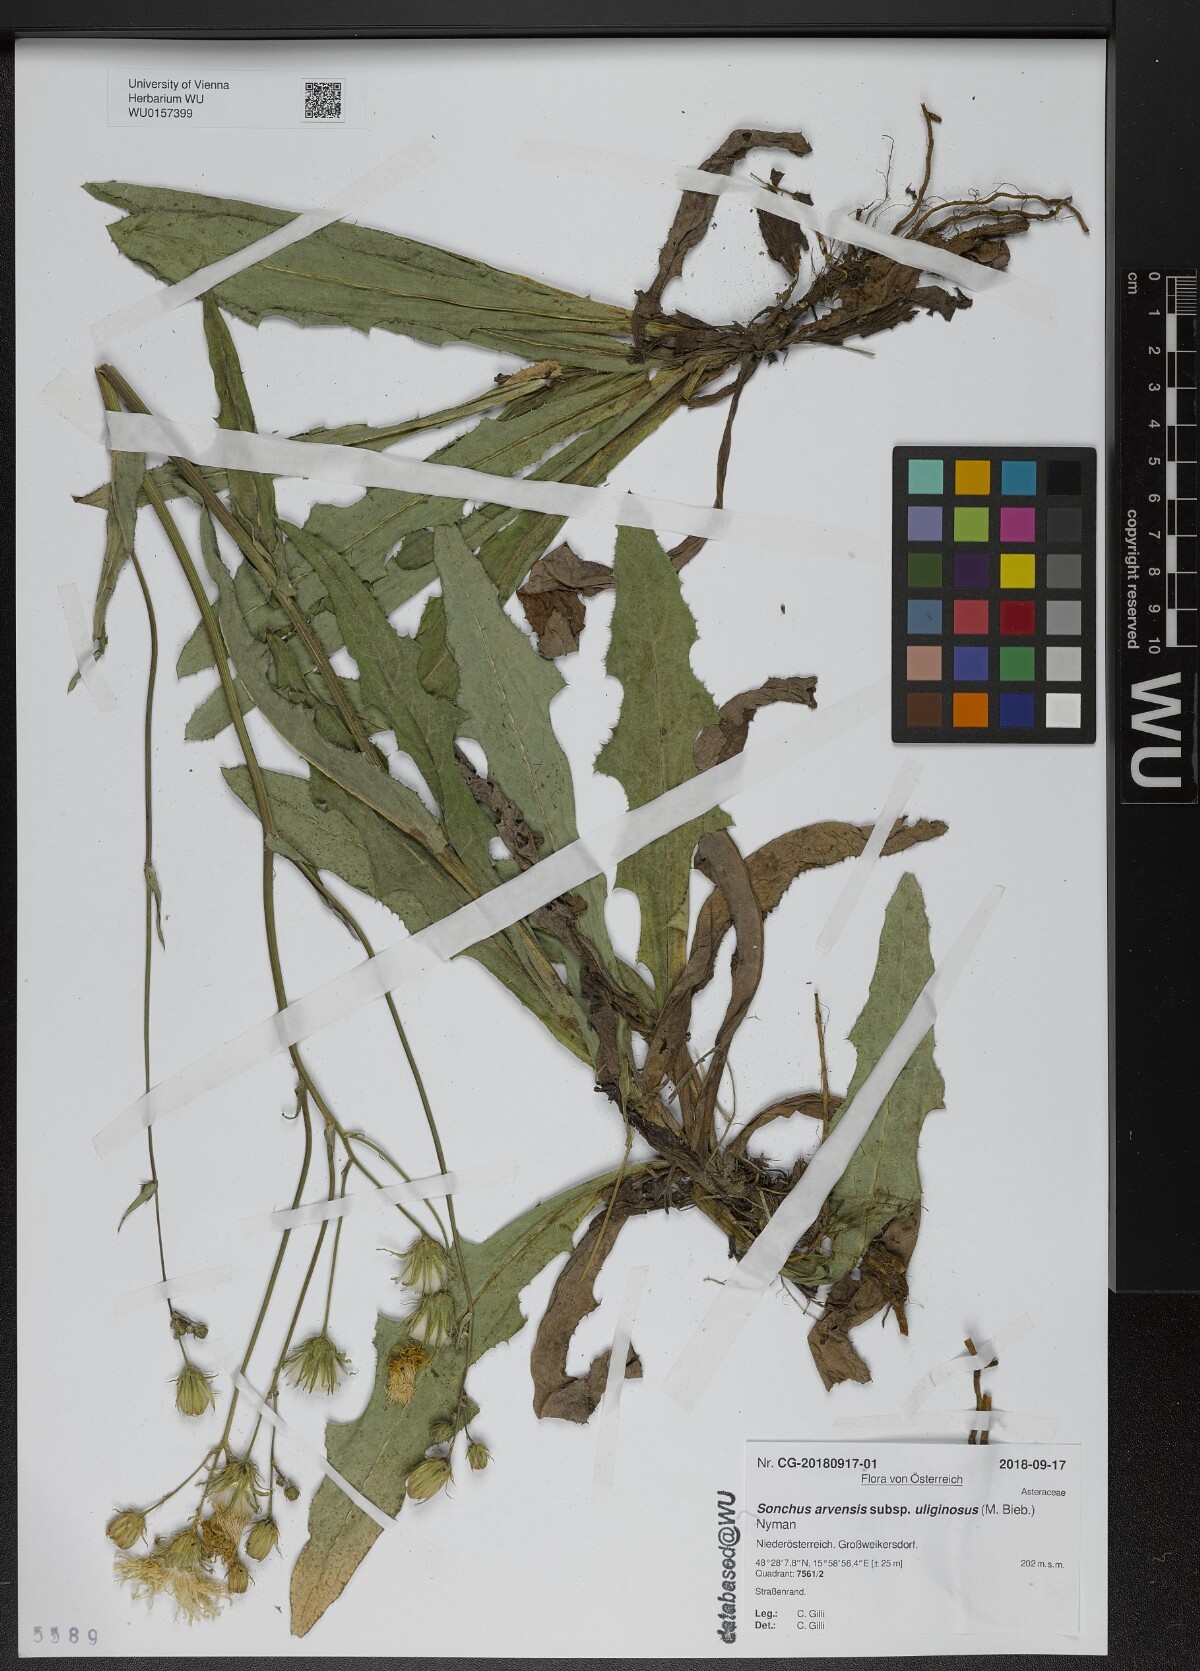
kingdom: Plantae
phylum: Tracheophyta
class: Magnoliopsida
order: Asterales
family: Asteraceae
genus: Sonchus
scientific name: Sonchus arvensis
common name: Perennial sow-thistle
